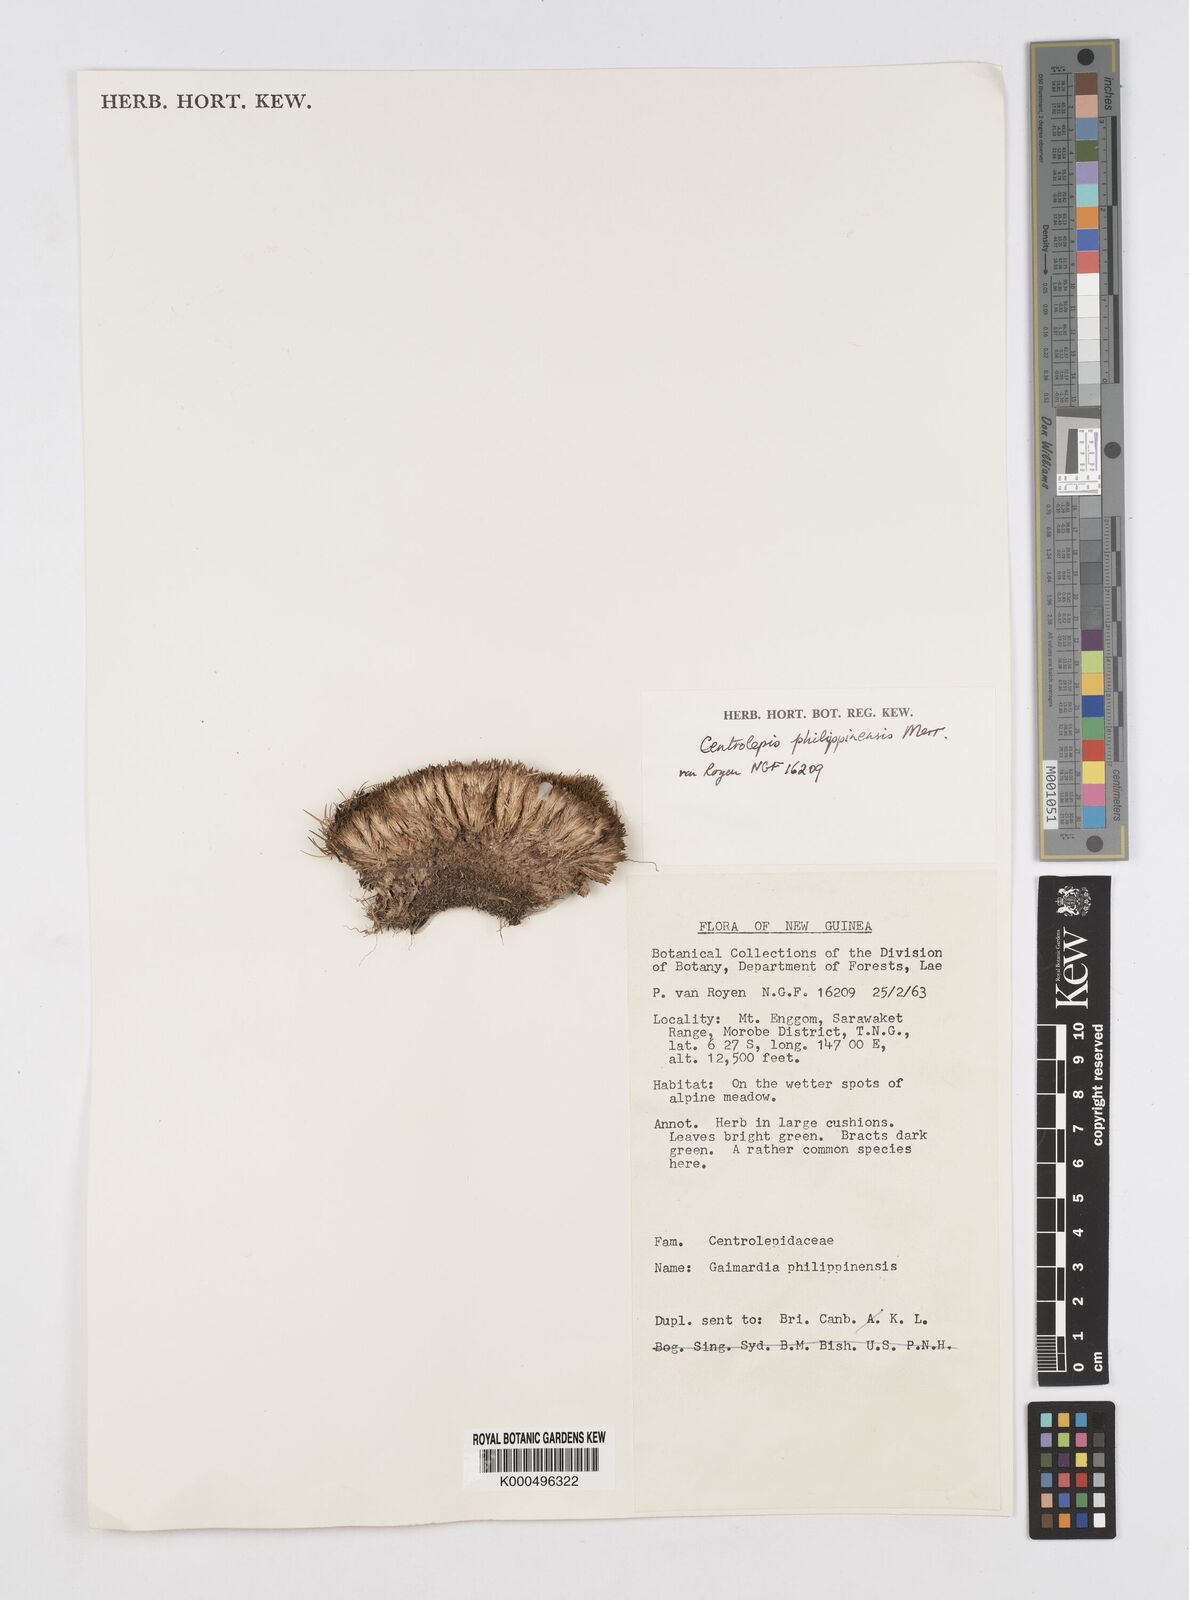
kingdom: Plantae
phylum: Tracheophyta
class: Liliopsida
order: Poales
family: Restionaceae
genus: Centrolepis
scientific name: Centrolepis philippinensis
